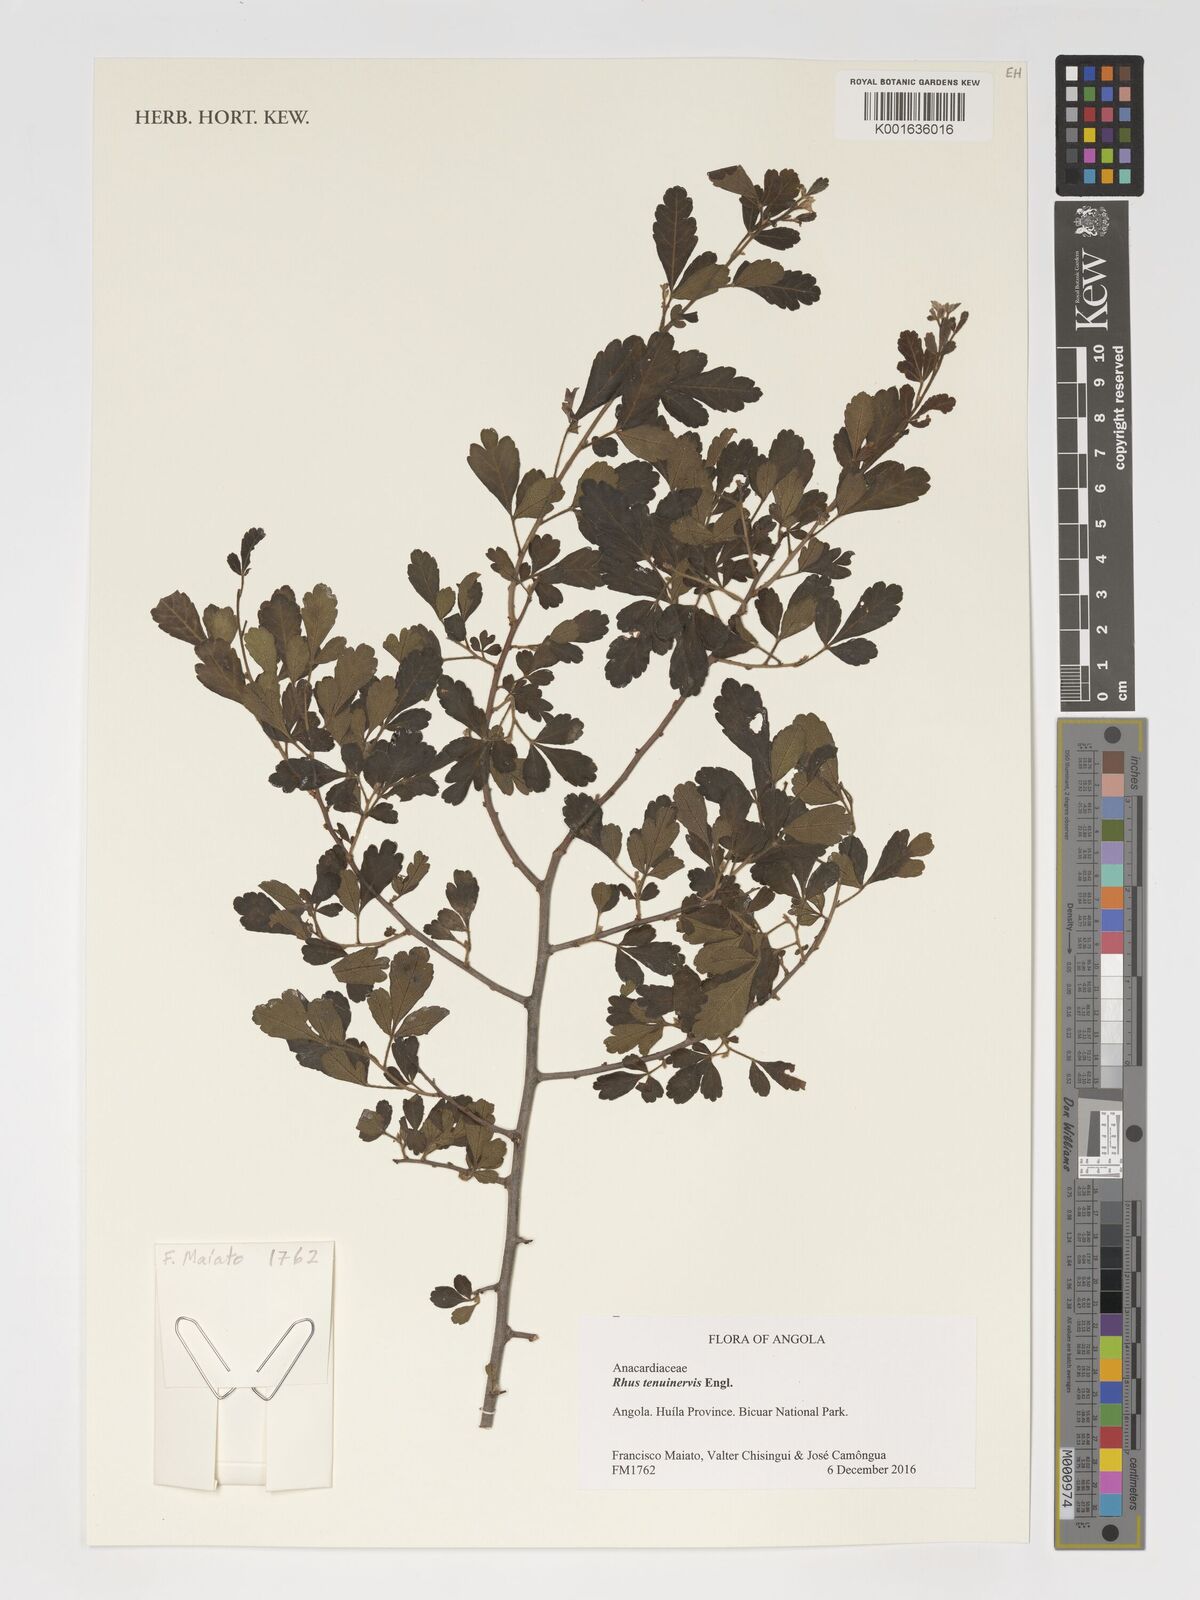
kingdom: Plantae
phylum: Tracheophyta
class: Magnoliopsida
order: Sapindales
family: Anacardiaceae
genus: Searsia
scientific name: Searsia tenuinervis
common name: Hyaena taaibos
